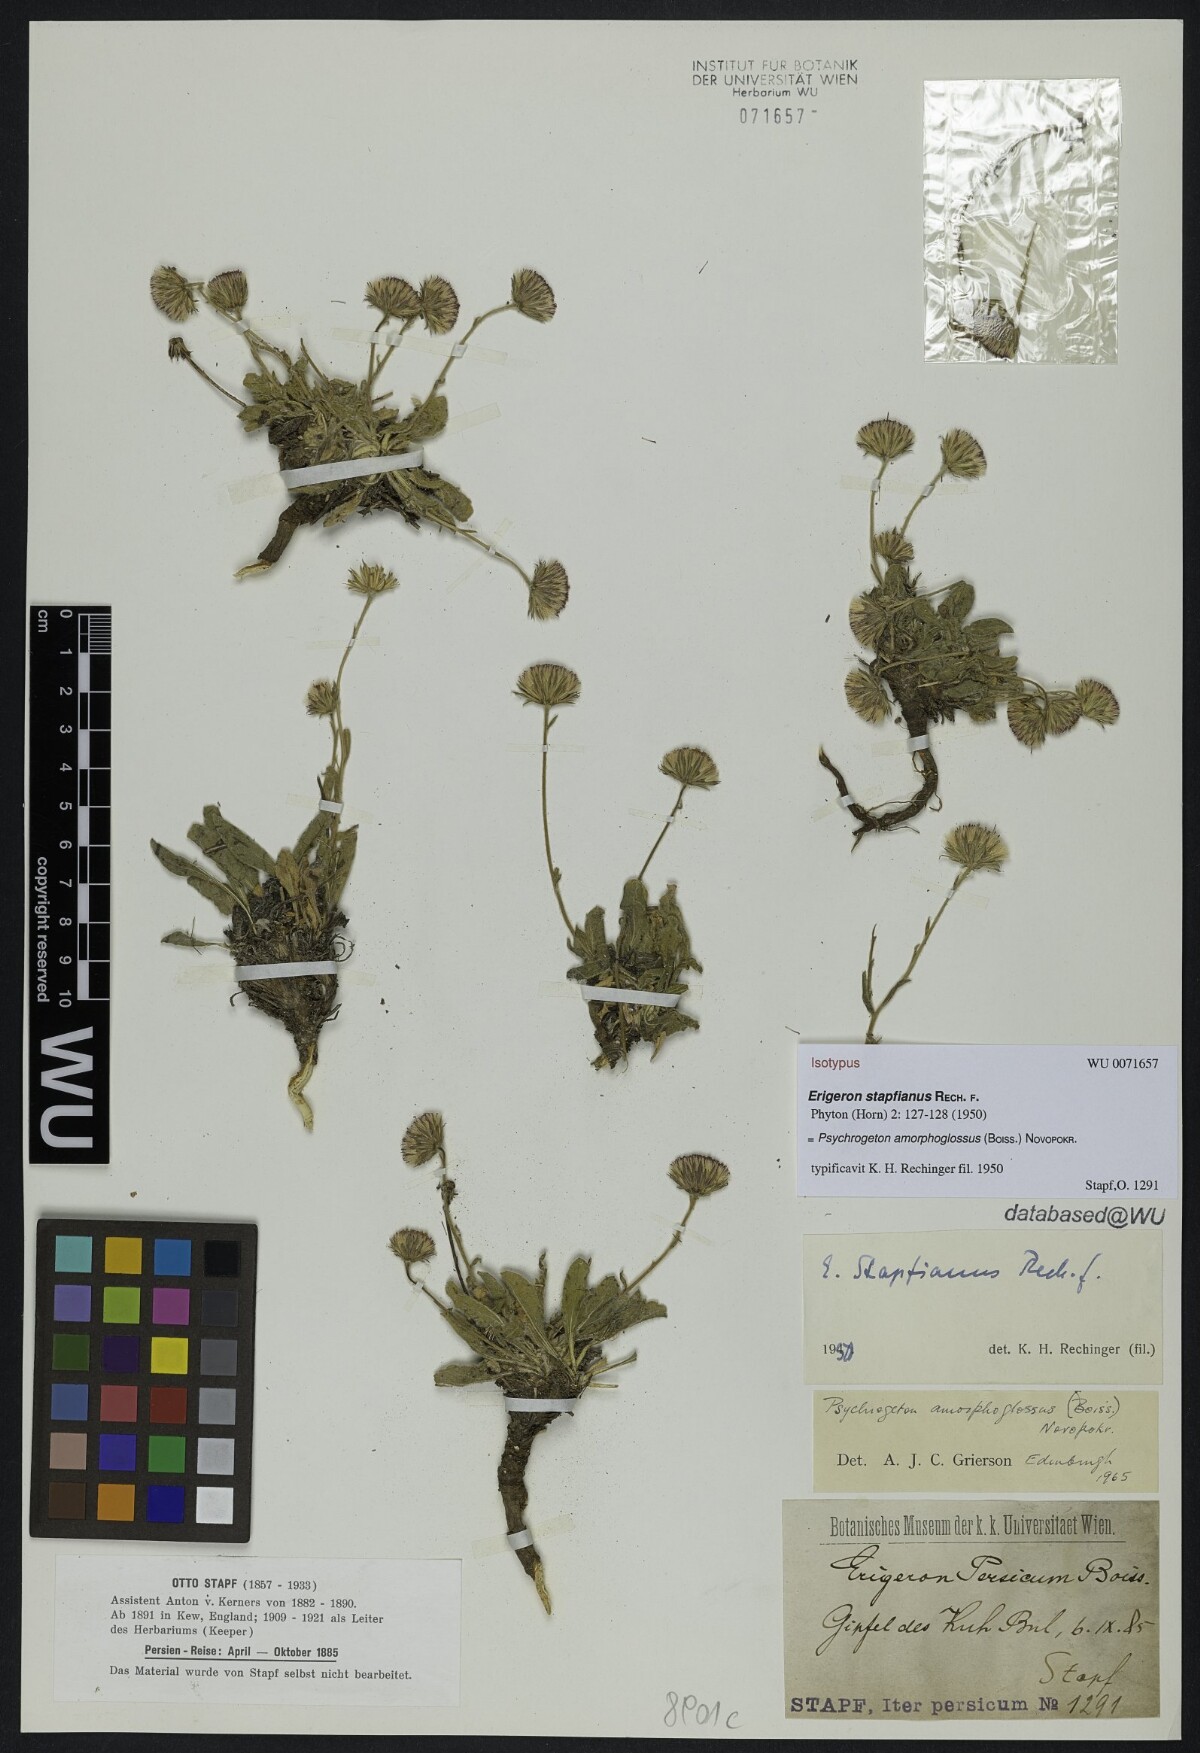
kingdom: Plantae
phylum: Tracheophyta
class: Magnoliopsida
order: Asterales
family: Asteraceae
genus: Psychrogeton
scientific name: Psychrogeton amorphoglossus
